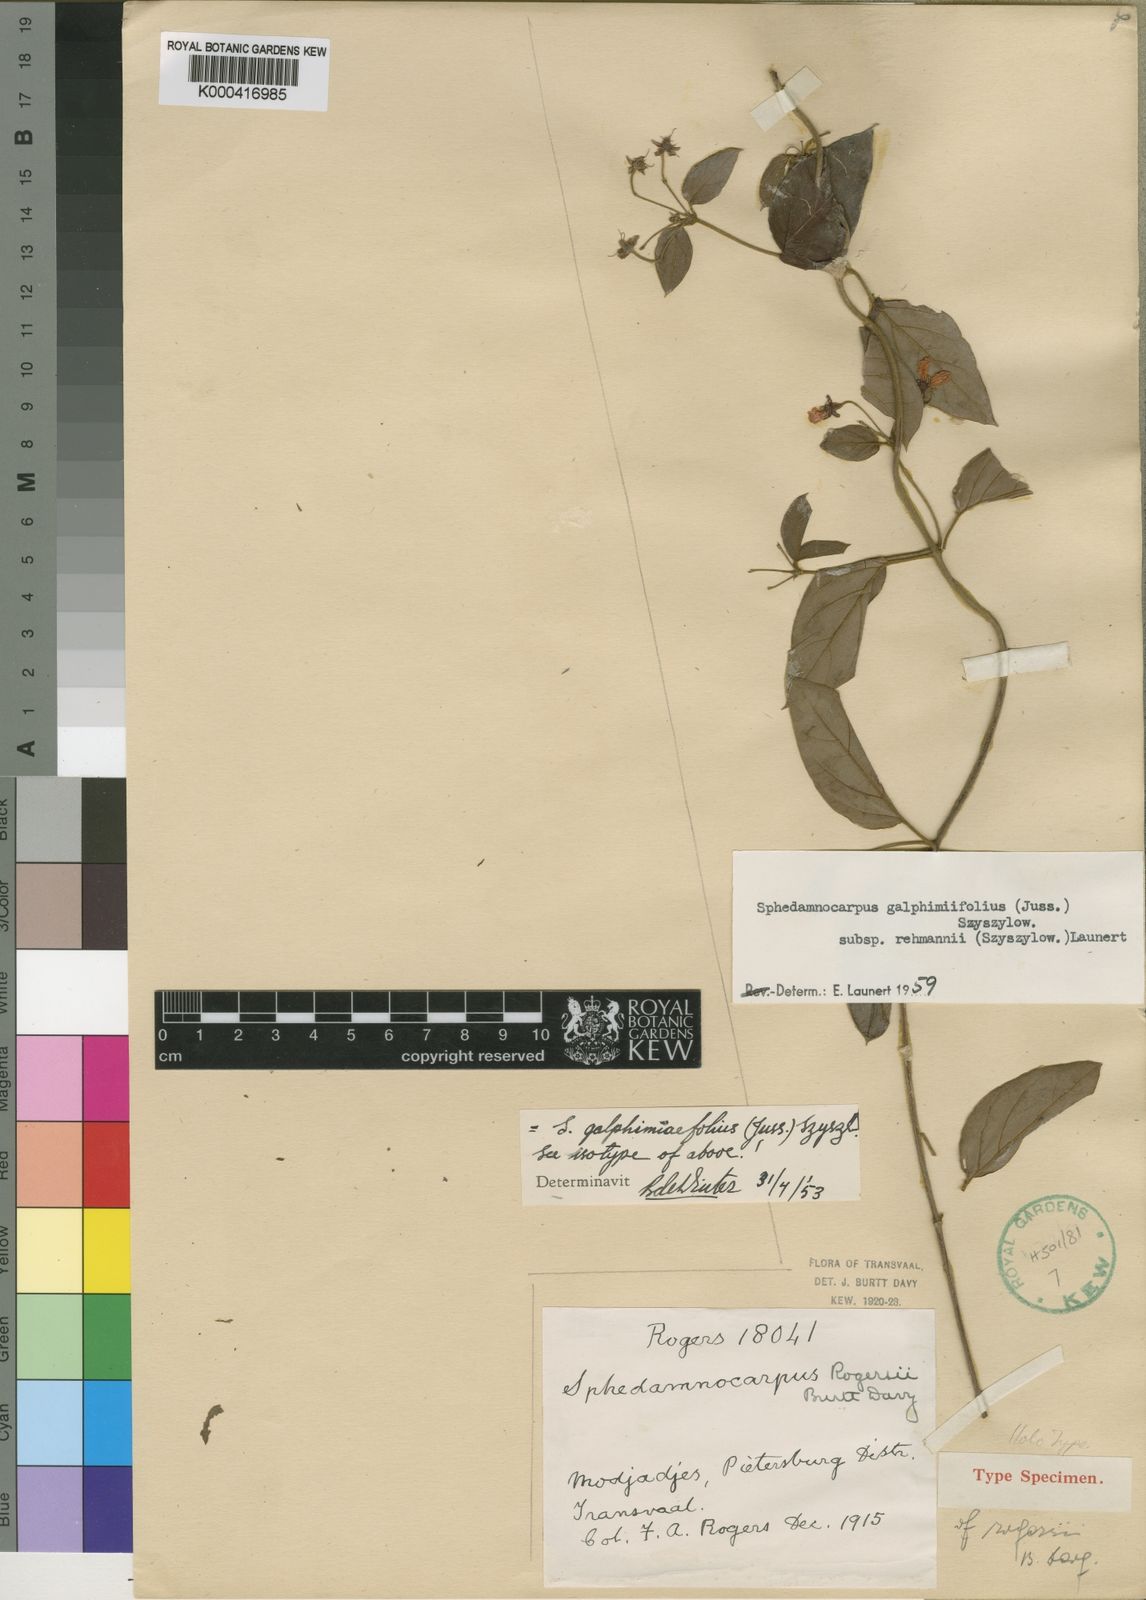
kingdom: Plantae
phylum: Tracheophyta
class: Magnoliopsida
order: Malpighiales
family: Malpighiaceae
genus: Sphedamnocarpus
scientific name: Sphedamnocarpus galphimiifolius
